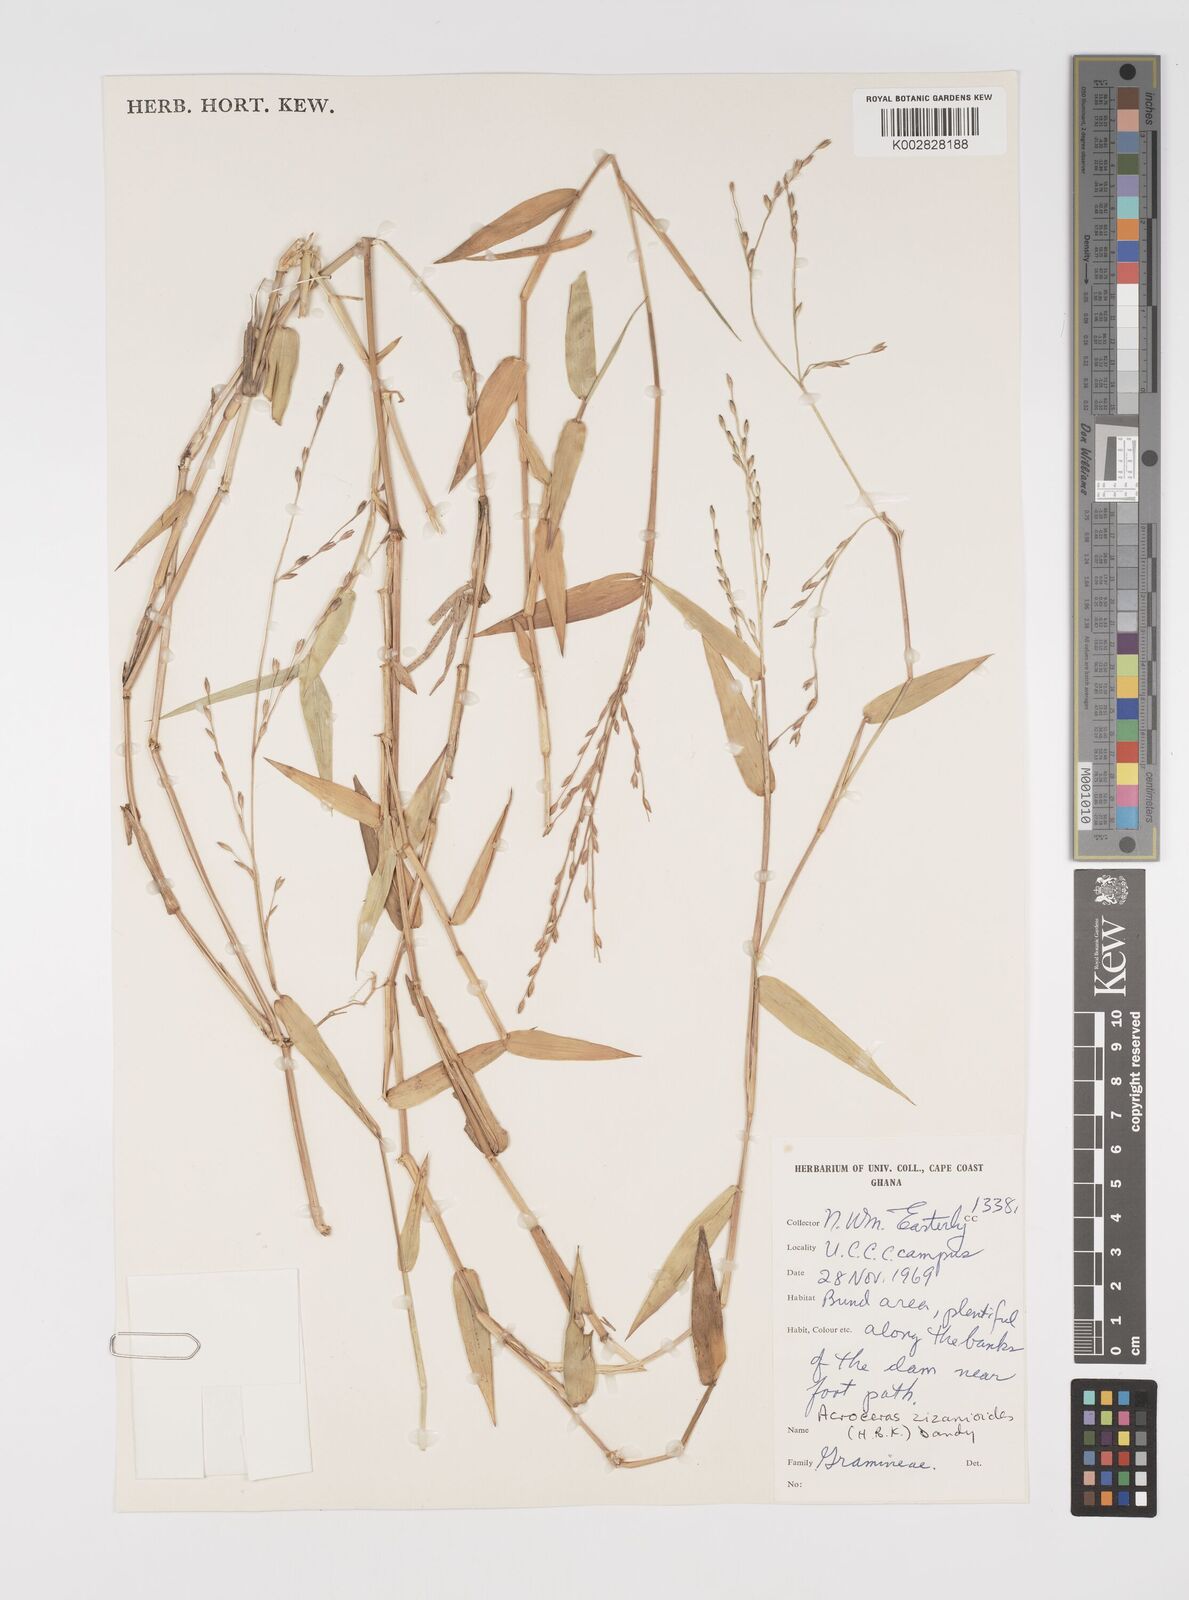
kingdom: Plantae
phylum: Tracheophyta
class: Liliopsida
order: Poales
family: Poaceae
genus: Acroceras
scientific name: Acroceras zizanioides
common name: Oat grass
